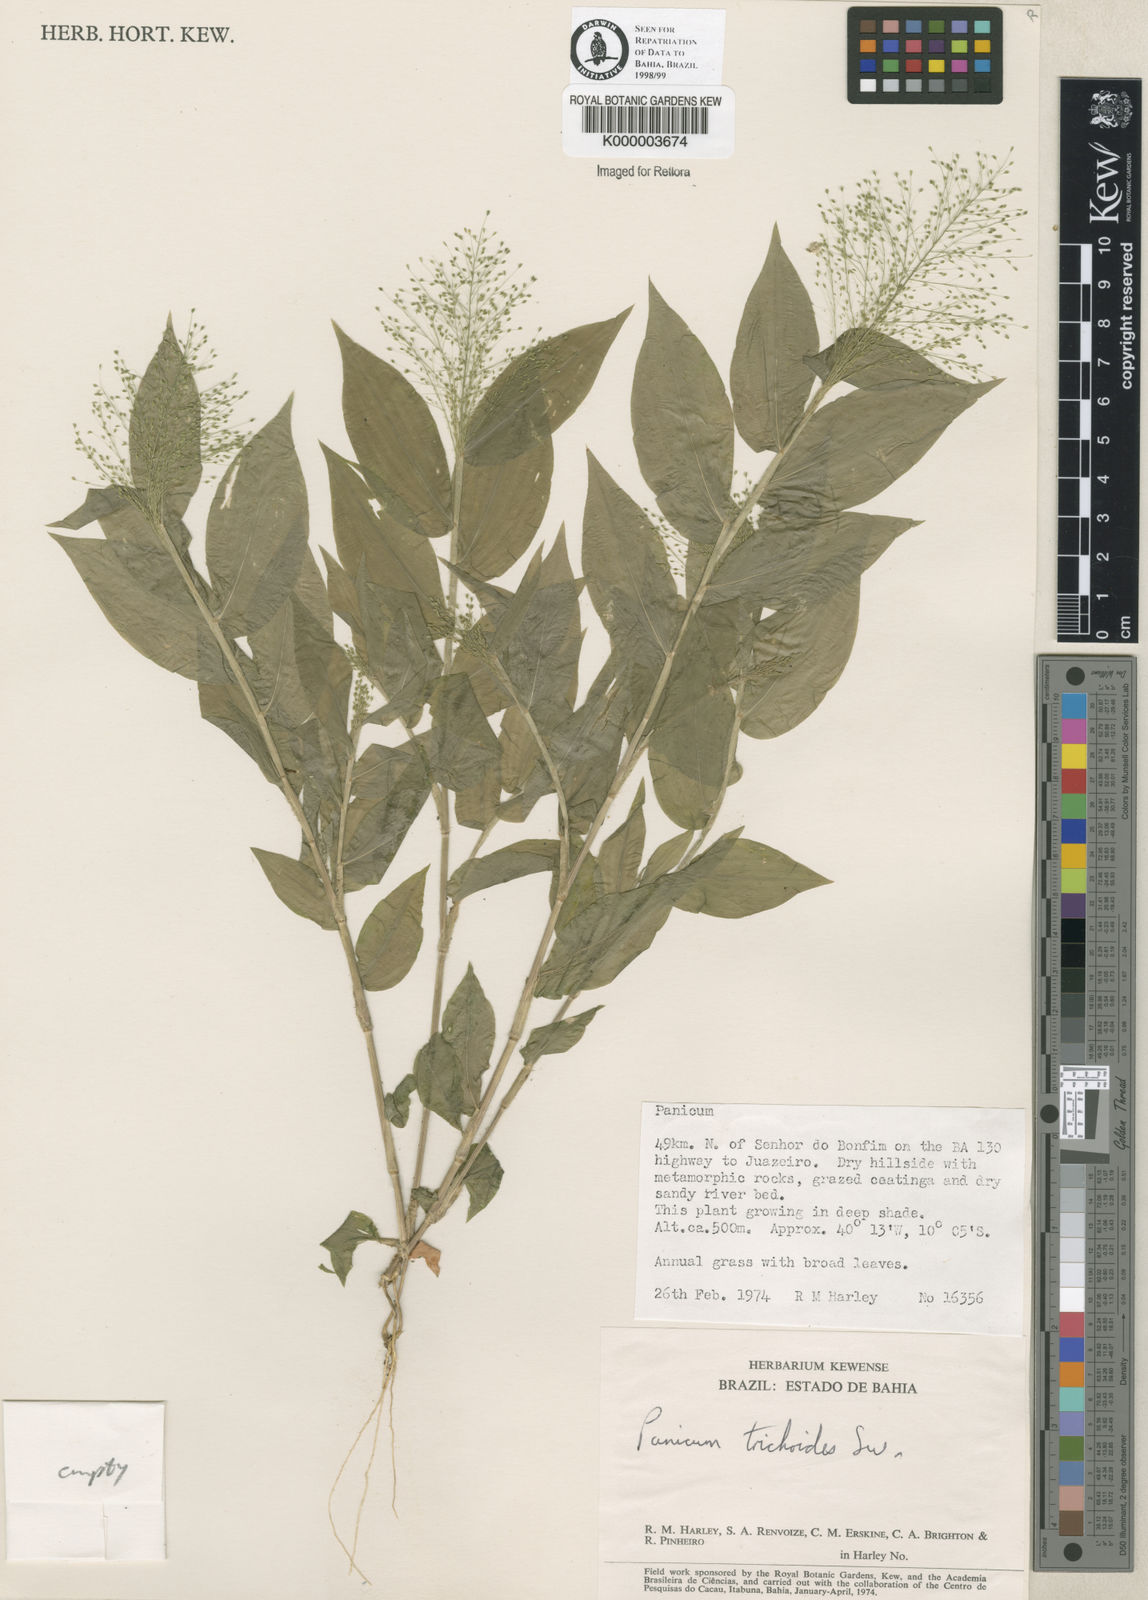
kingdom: Plantae
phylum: Tracheophyta
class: Liliopsida
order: Poales
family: Poaceae
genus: Panicum
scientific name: Panicum
